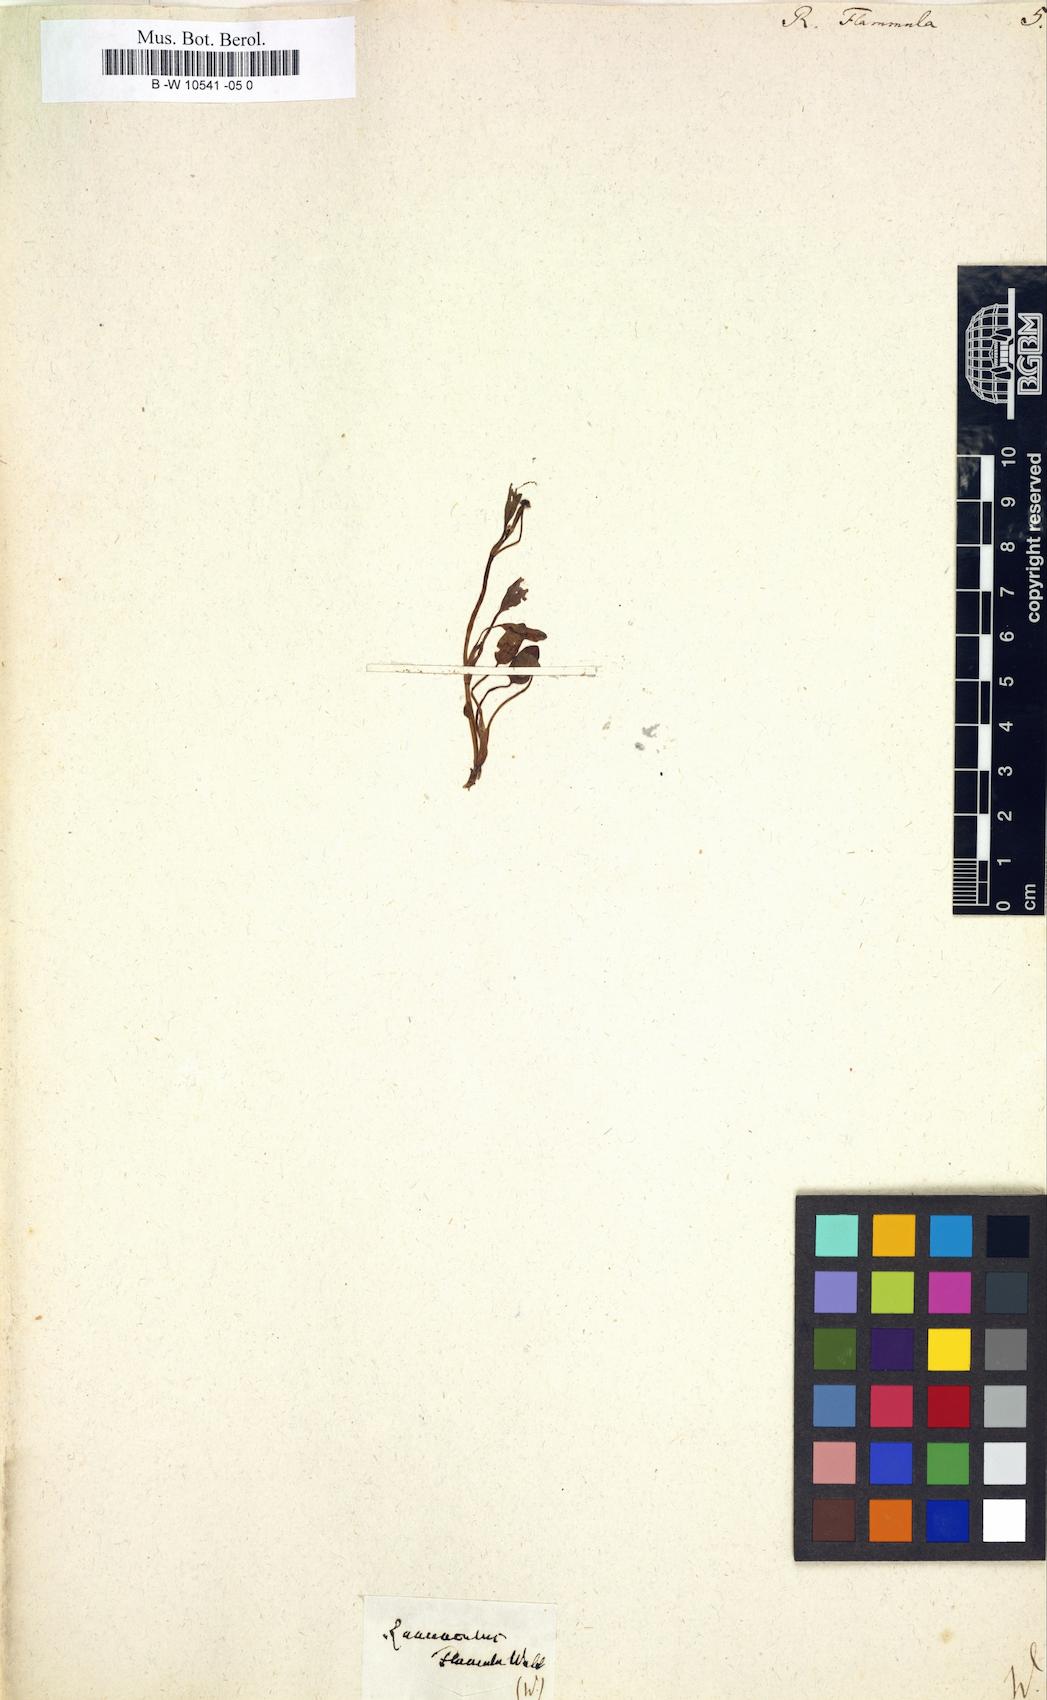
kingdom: Plantae
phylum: Tracheophyta
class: Magnoliopsida
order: Ranunculales
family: Ranunculaceae
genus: Ranunculus
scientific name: Ranunculus flammula
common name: Lesser spearwort
